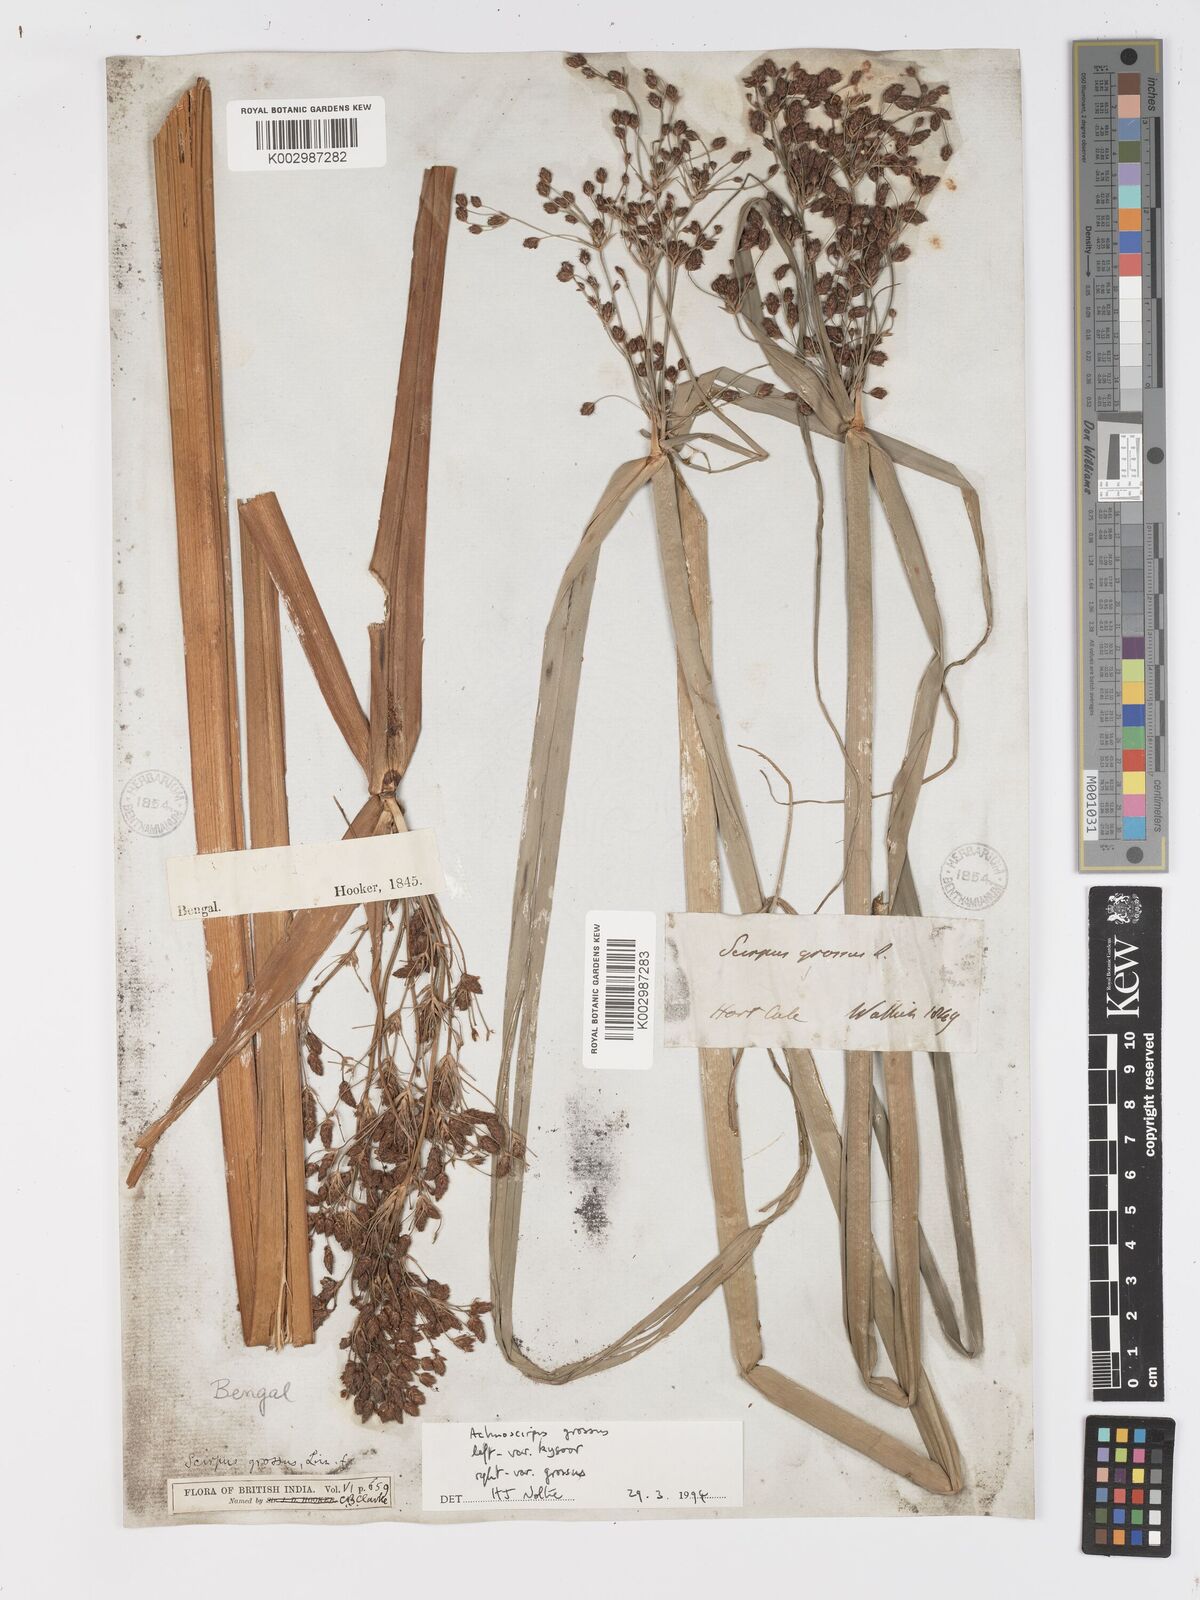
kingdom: Plantae
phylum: Tracheophyta
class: Liliopsida
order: Poales
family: Cyperaceae
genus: Actinoscirpus
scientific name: Actinoscirpus grossus
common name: Giant bur rush
